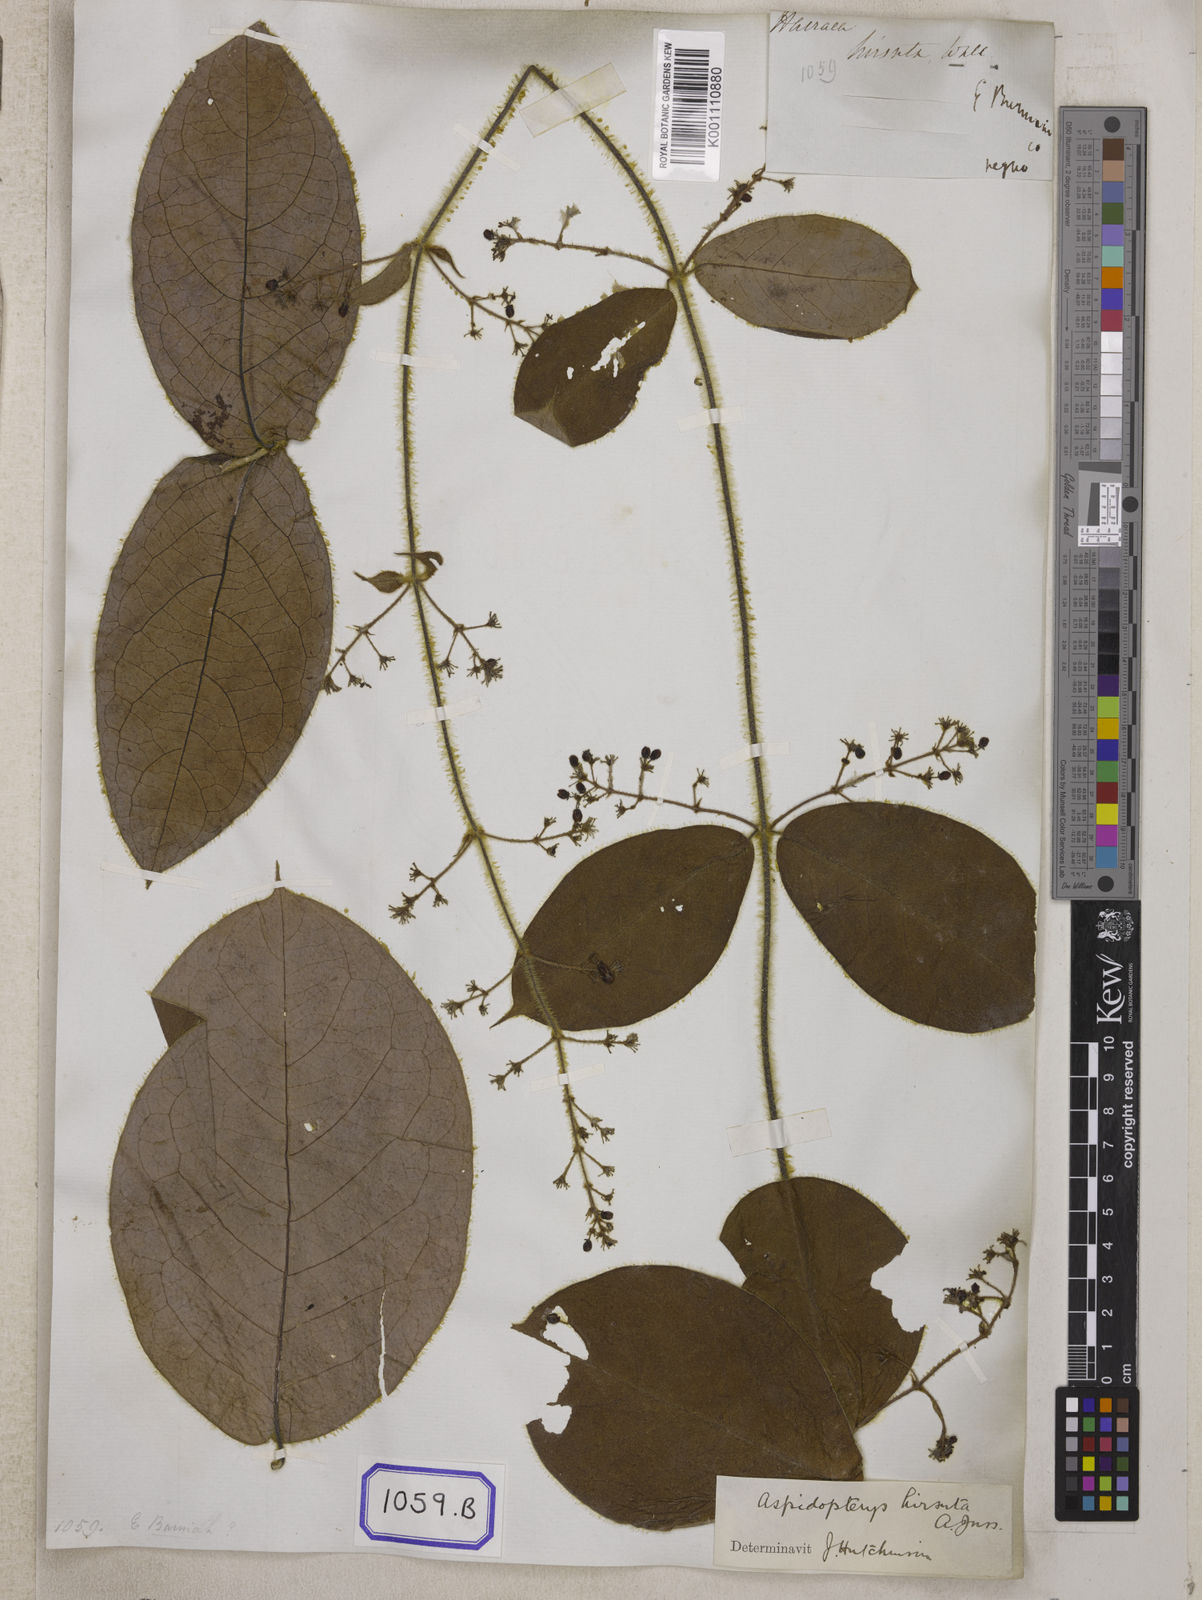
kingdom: Plantae
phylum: Tracheophyta
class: Magnoliopsida
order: Malpighiales
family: Malpighiaceae
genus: Aspidopterys
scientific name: Aspidopterys hirsuta
